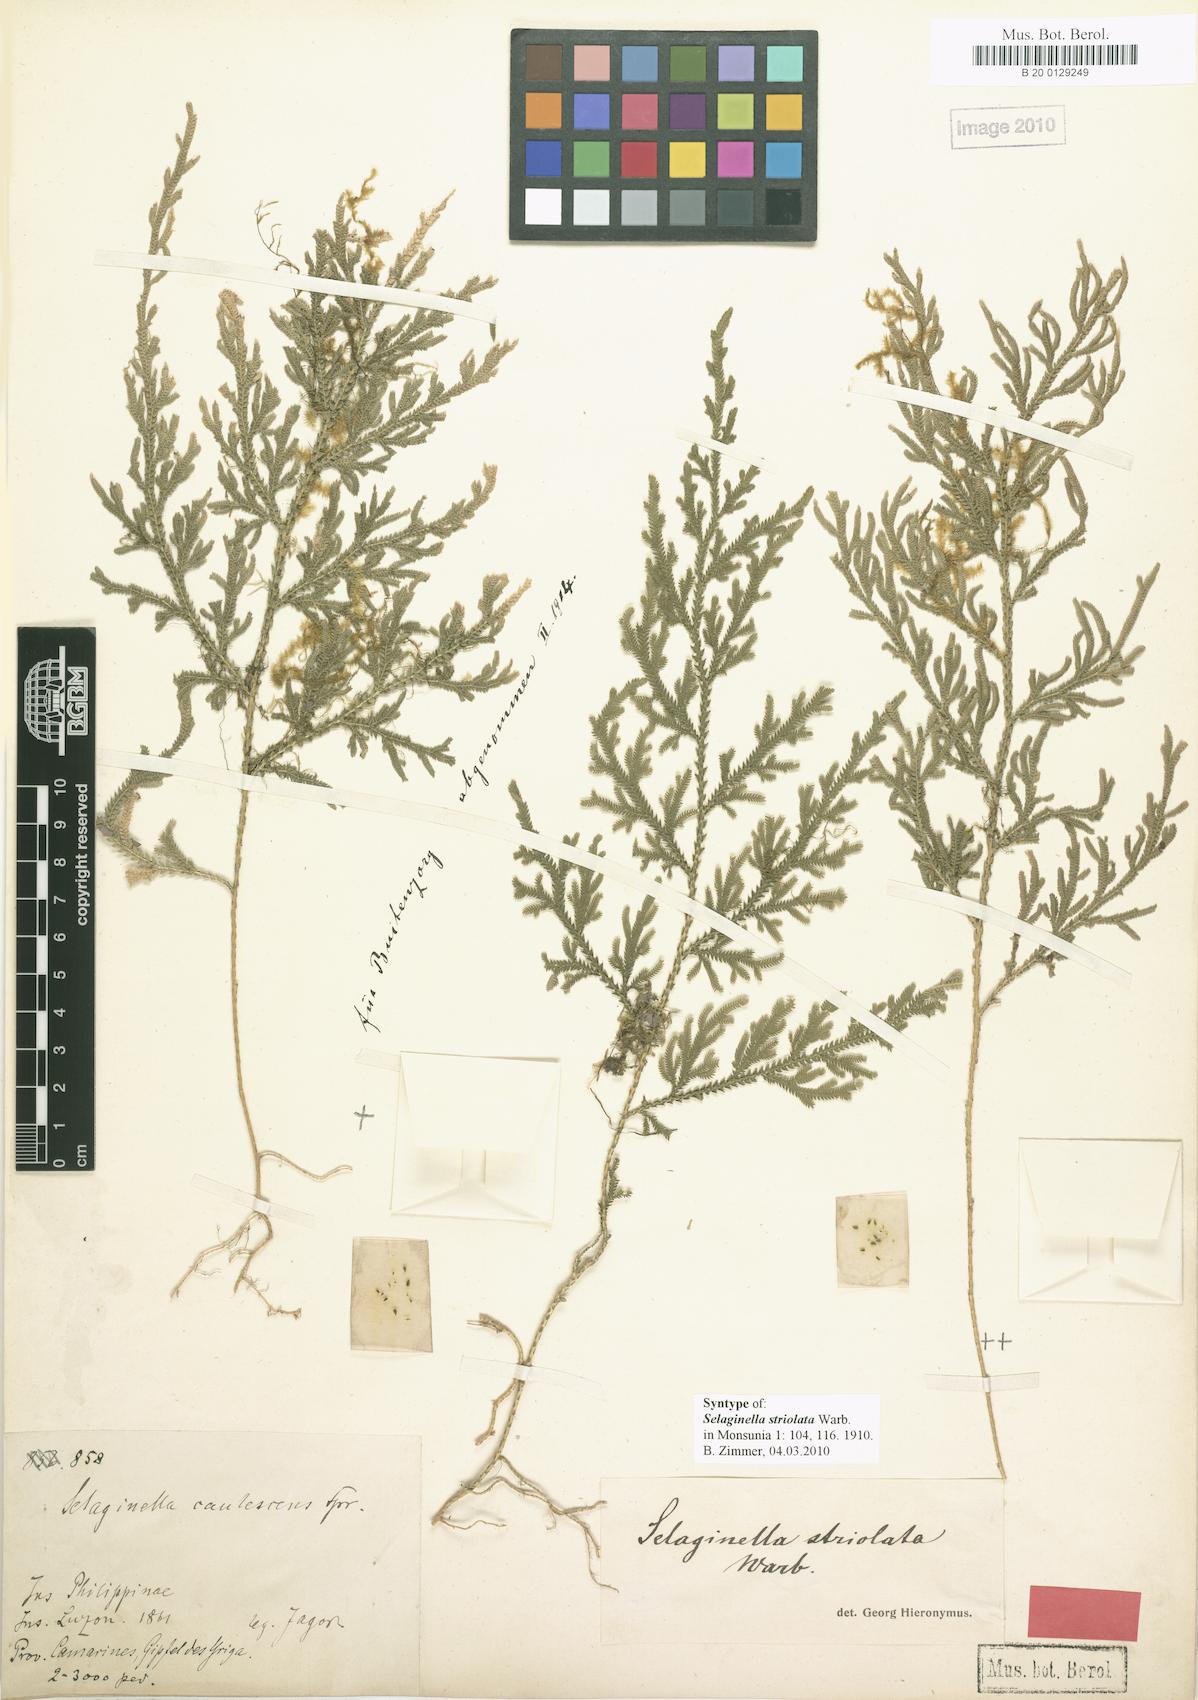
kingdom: Plantae
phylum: Tracheophyta
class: Lycopodiopsida
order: Selaginellales
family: Selaginellaceae
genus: Selaginella
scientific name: Selaginella involvens
